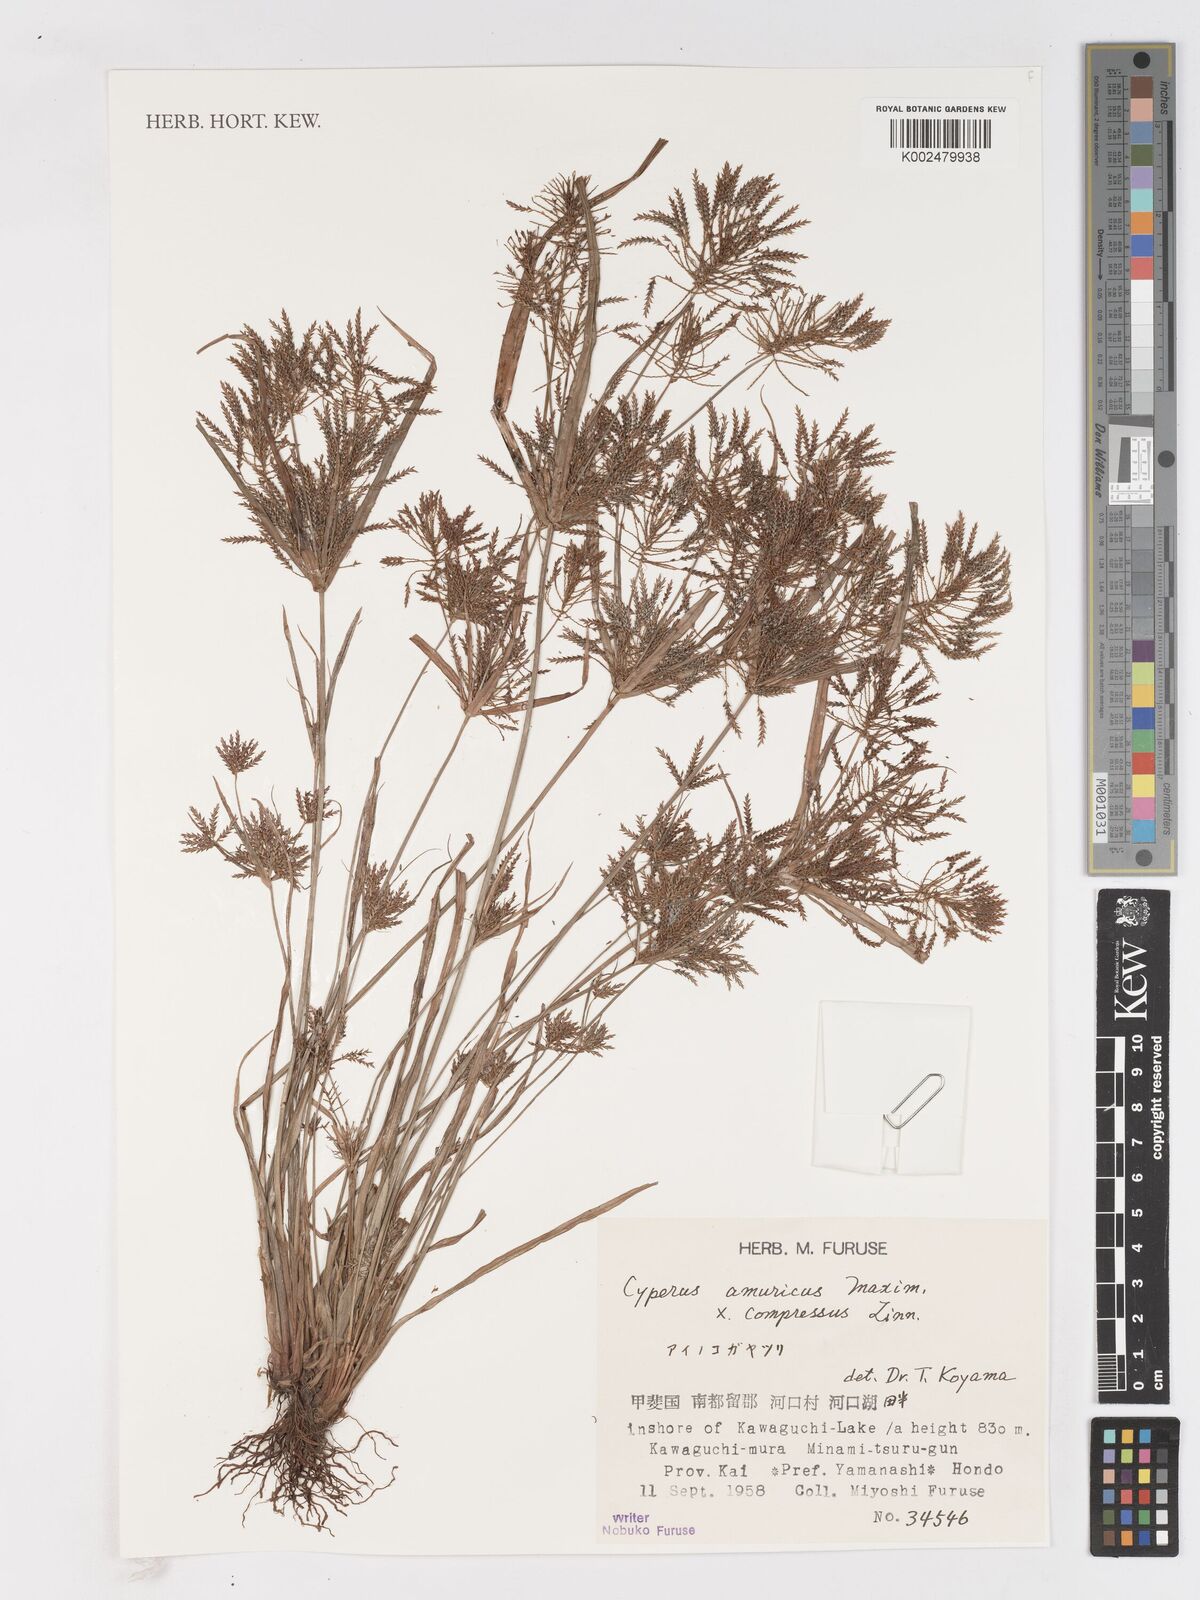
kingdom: Plantae
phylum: Tracheophyta
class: Liliopsida
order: Poales
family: Cyperaceae
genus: Cyperus
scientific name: Cyperus amuricus
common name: Asian flatsedge
